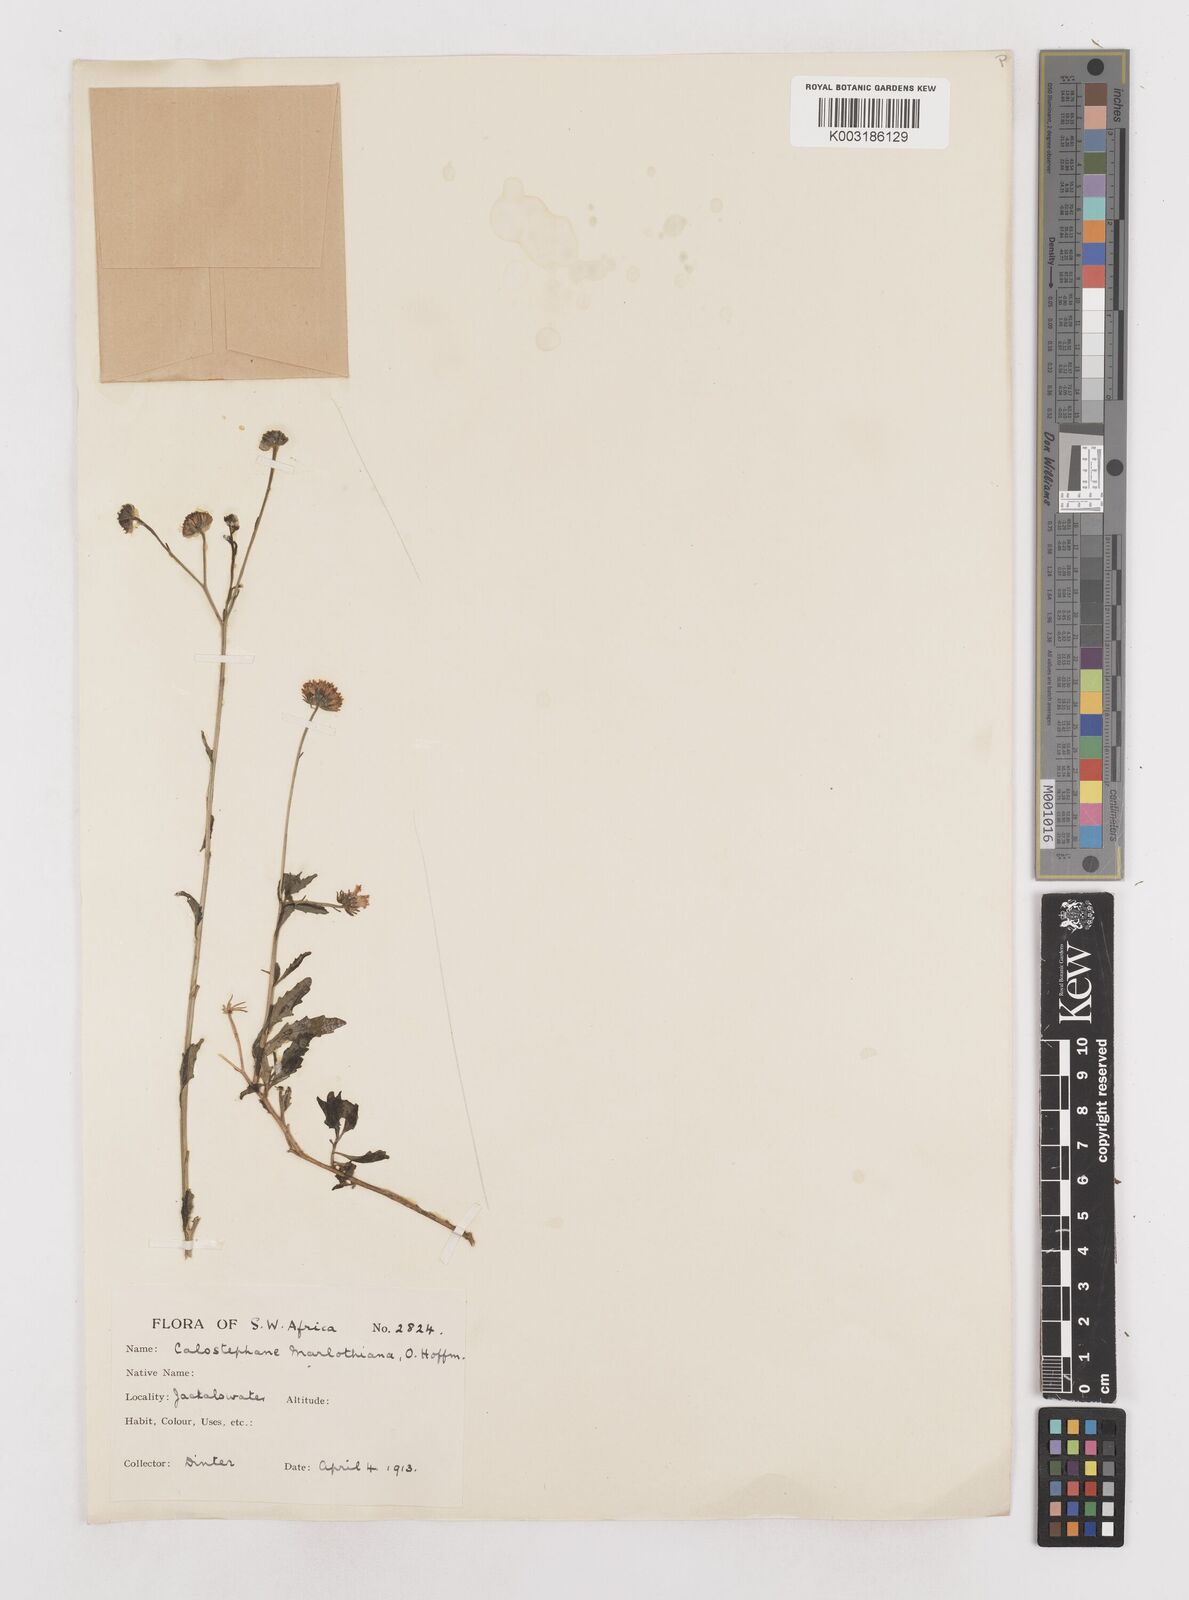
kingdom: Plantae
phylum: Tracheophyta
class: Magnoliopsida
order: Asterales
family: Asteraceae
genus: Calostephane
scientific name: Calostephane marlothiana
